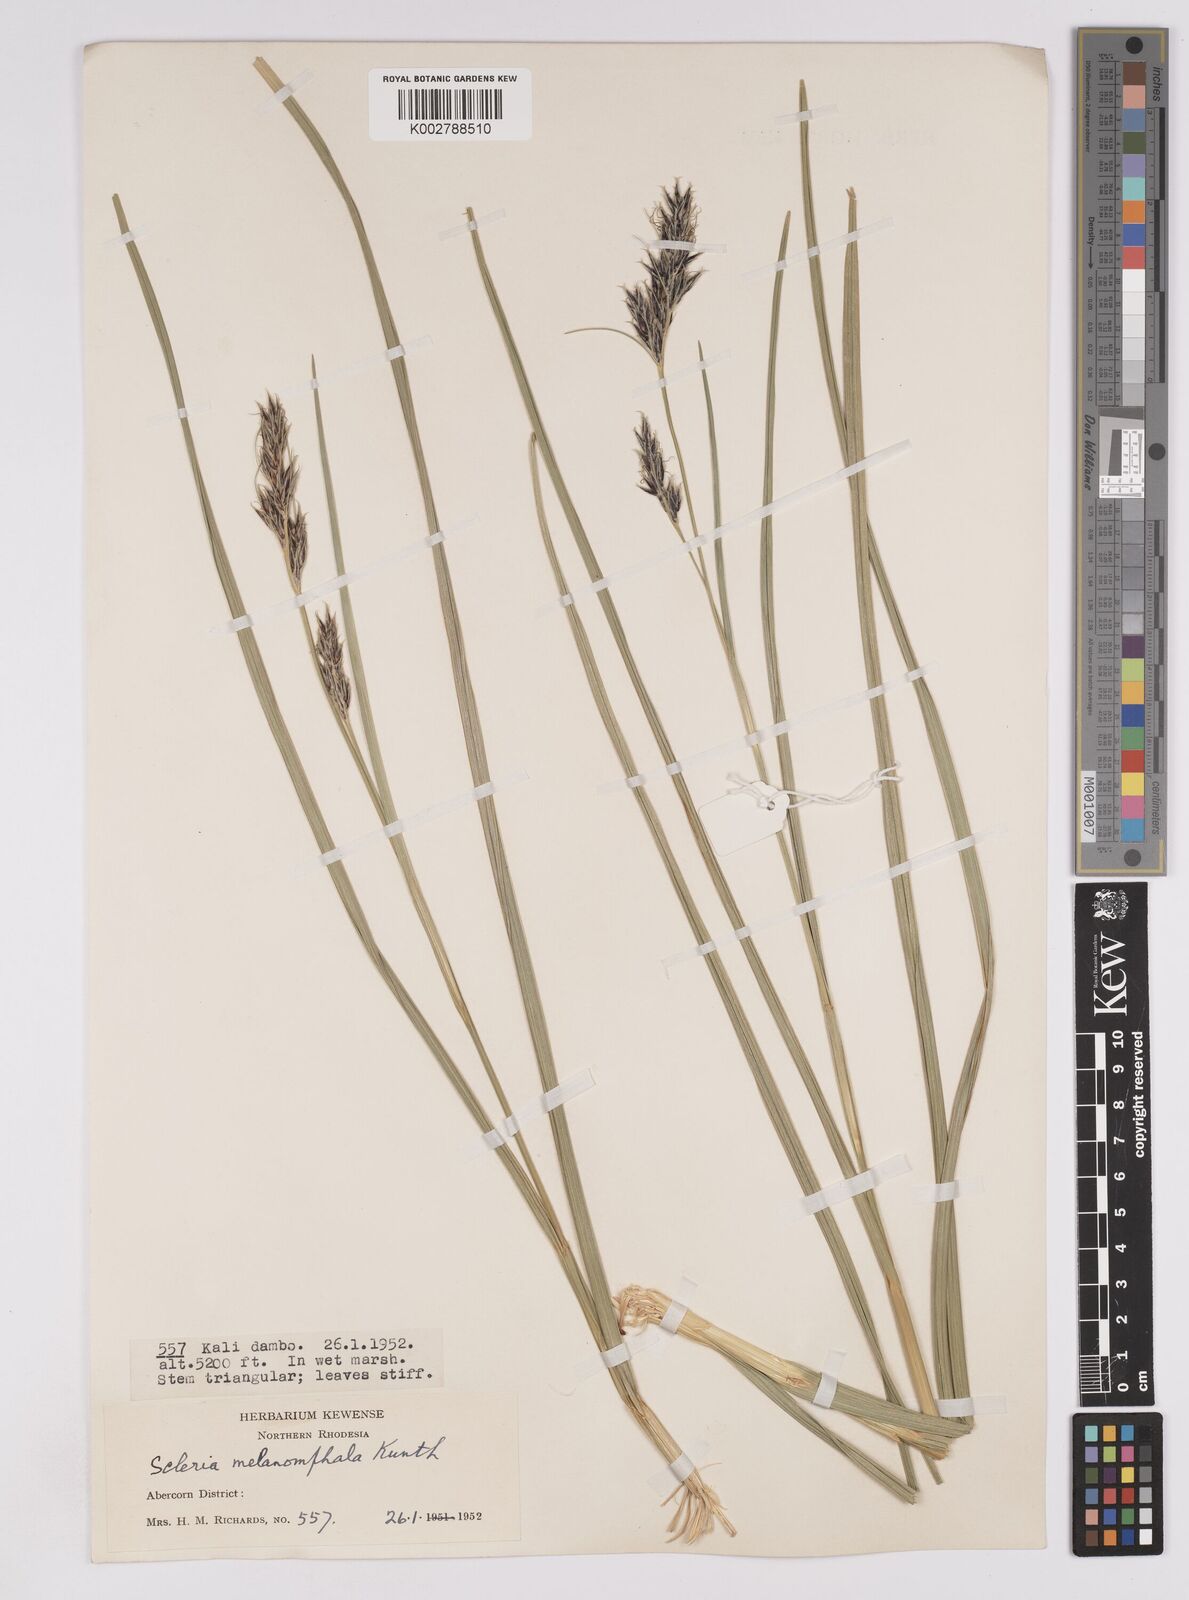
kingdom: Plantae
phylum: Tracheophyta
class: Liliopsida
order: Poales
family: Cyperaceae
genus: Scleria
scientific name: Scleria melanomphala
